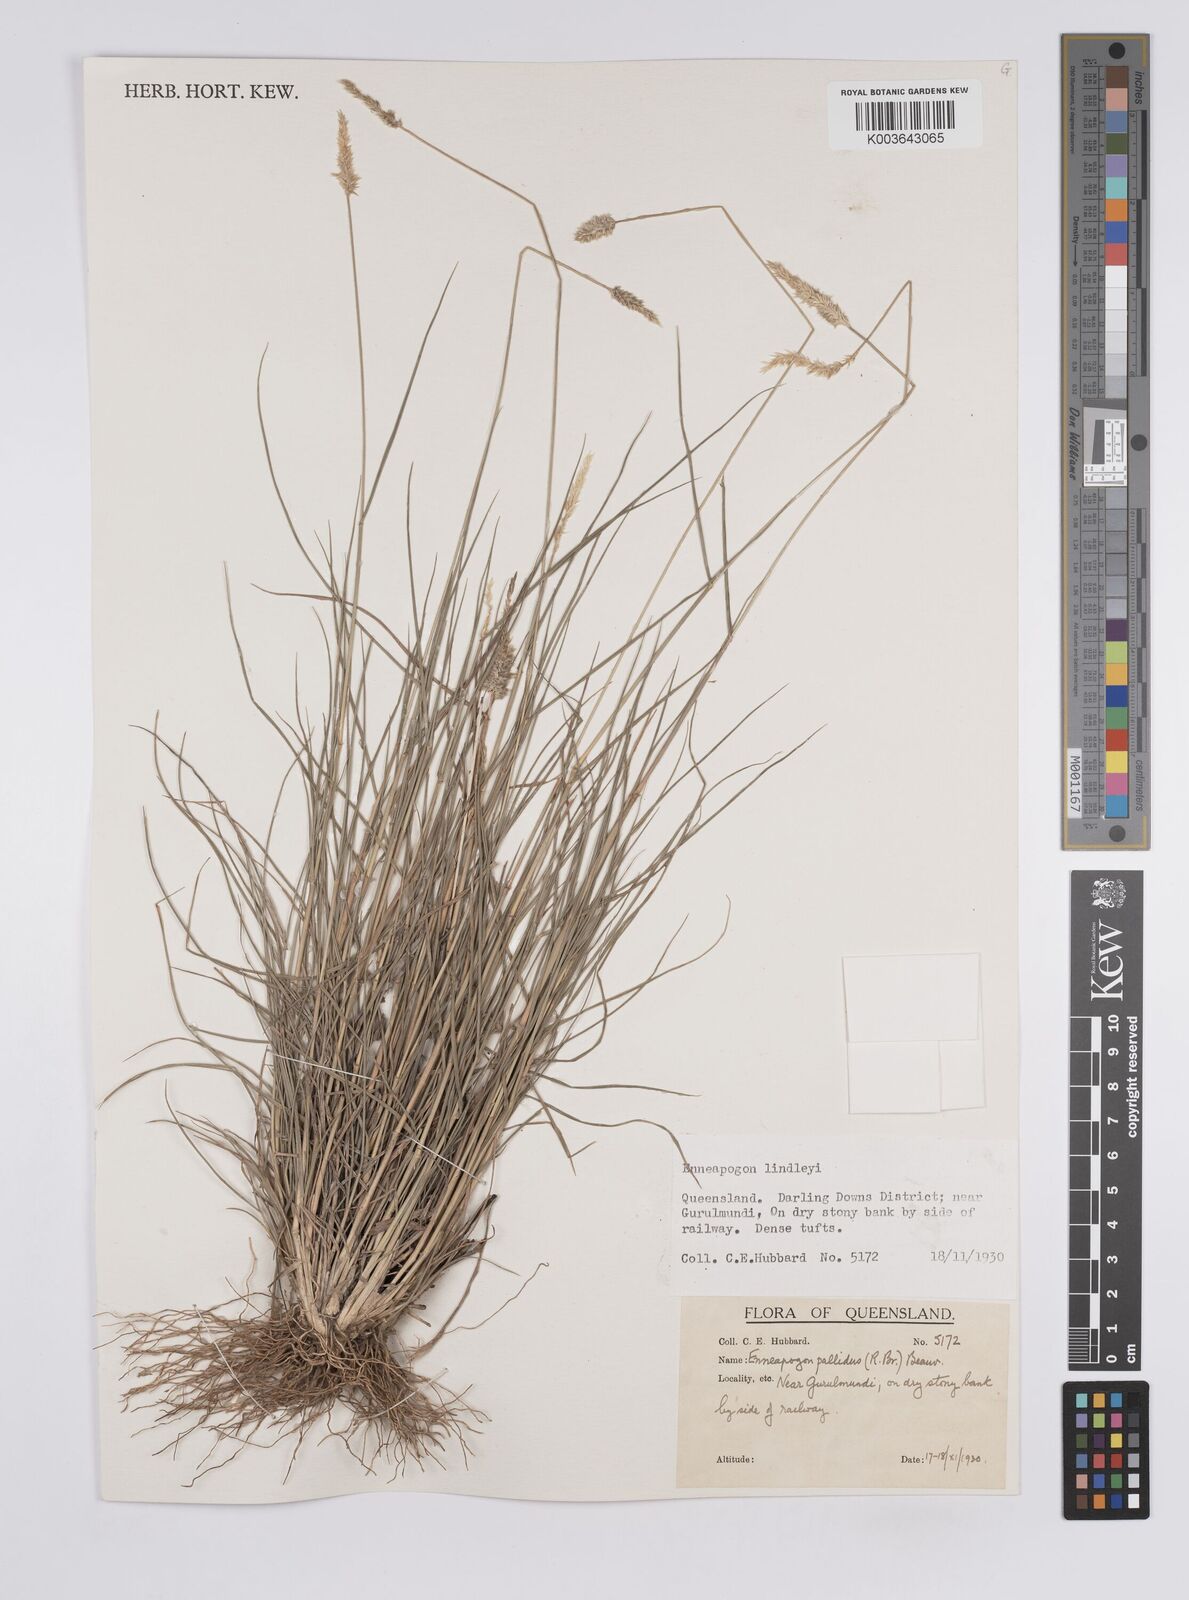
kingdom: Plantae
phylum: Tracheophyta
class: Liliopsida
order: Poales
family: Poaceae
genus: Enneapogon
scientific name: Enneapogon pallidus
